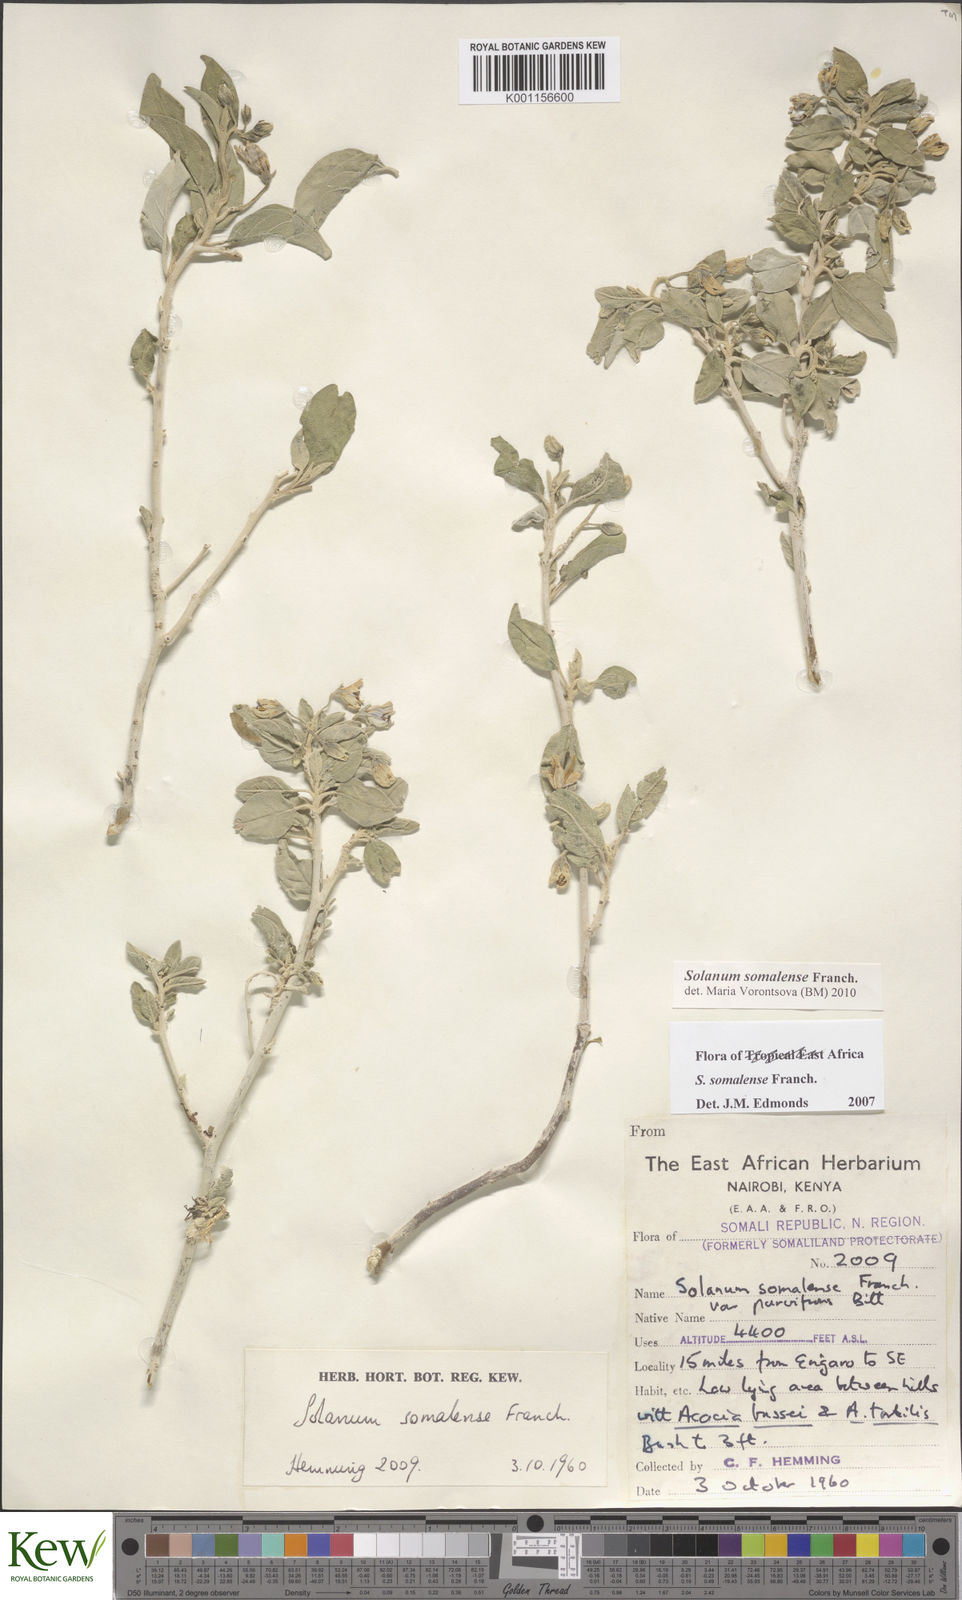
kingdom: Plantae
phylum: Tracheophyta
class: Magnoliopsida
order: Solanales
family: Solanaceae
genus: Solanum
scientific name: Solanum somalense
